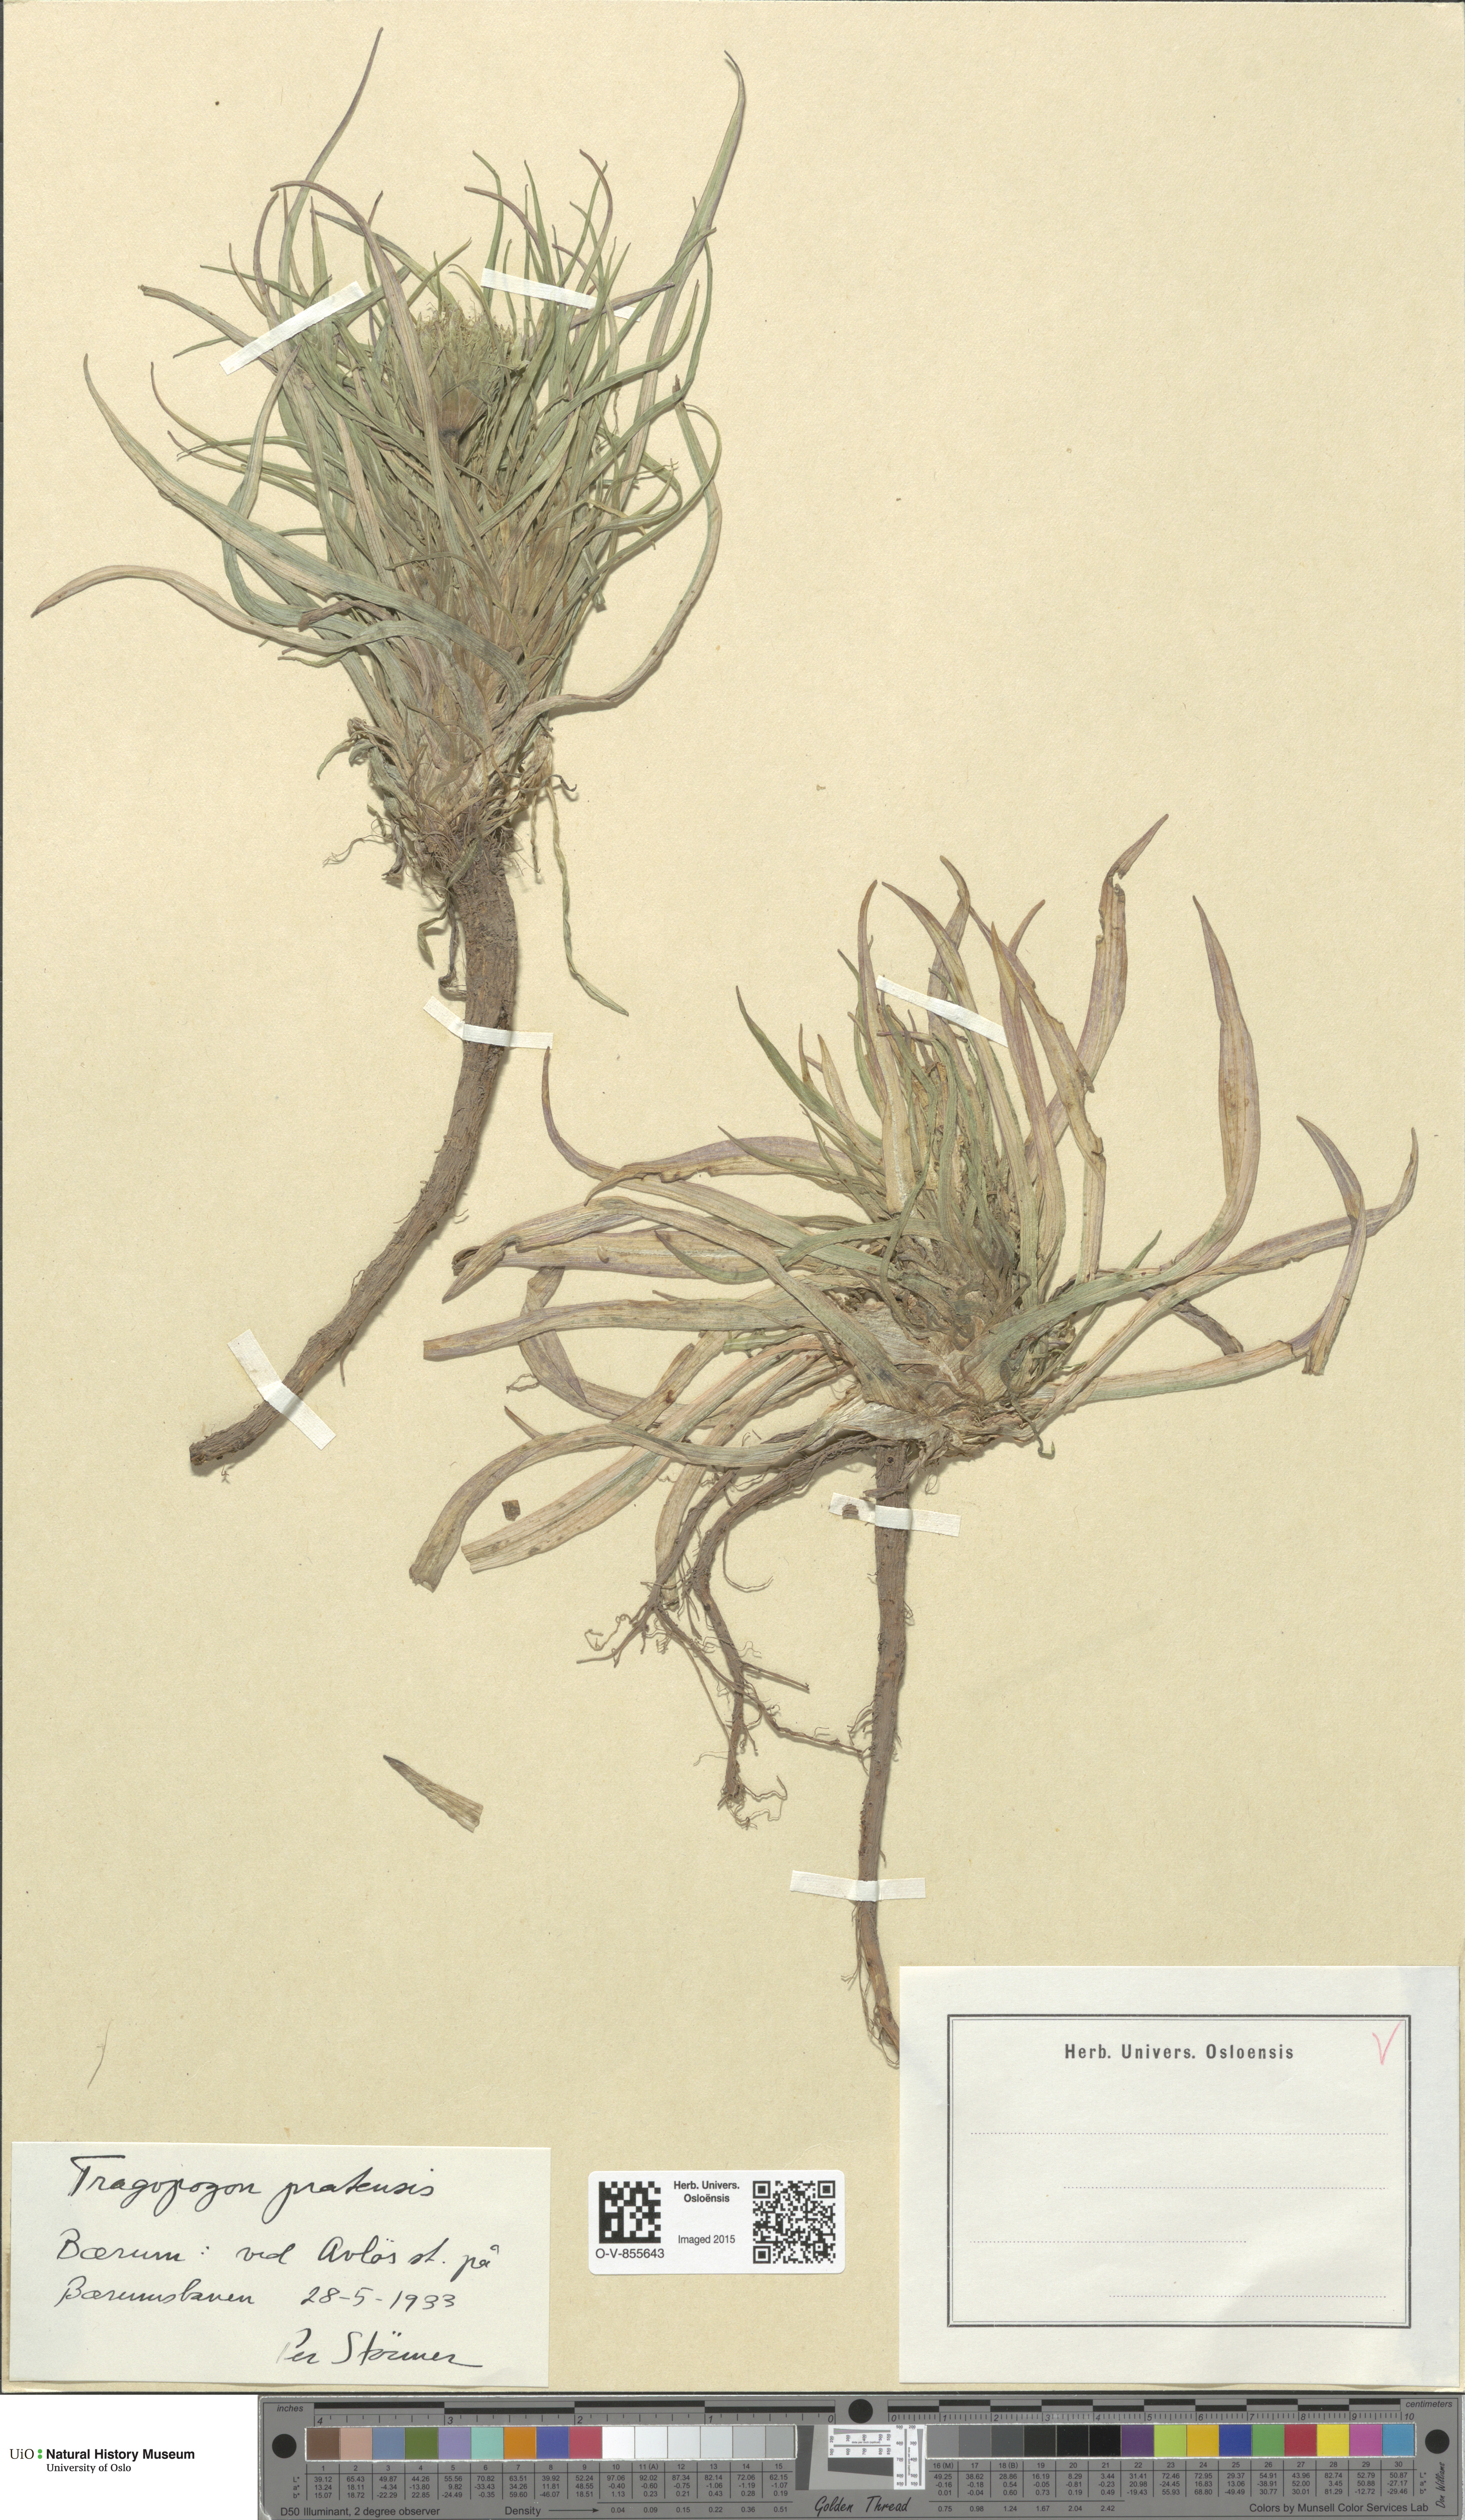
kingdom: Plantae
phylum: Tracheophyta
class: Magnoliopsida
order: Asterales
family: Asteraceae
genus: Tragopogon
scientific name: Tragopogon pratensis
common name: Goat's-beard
